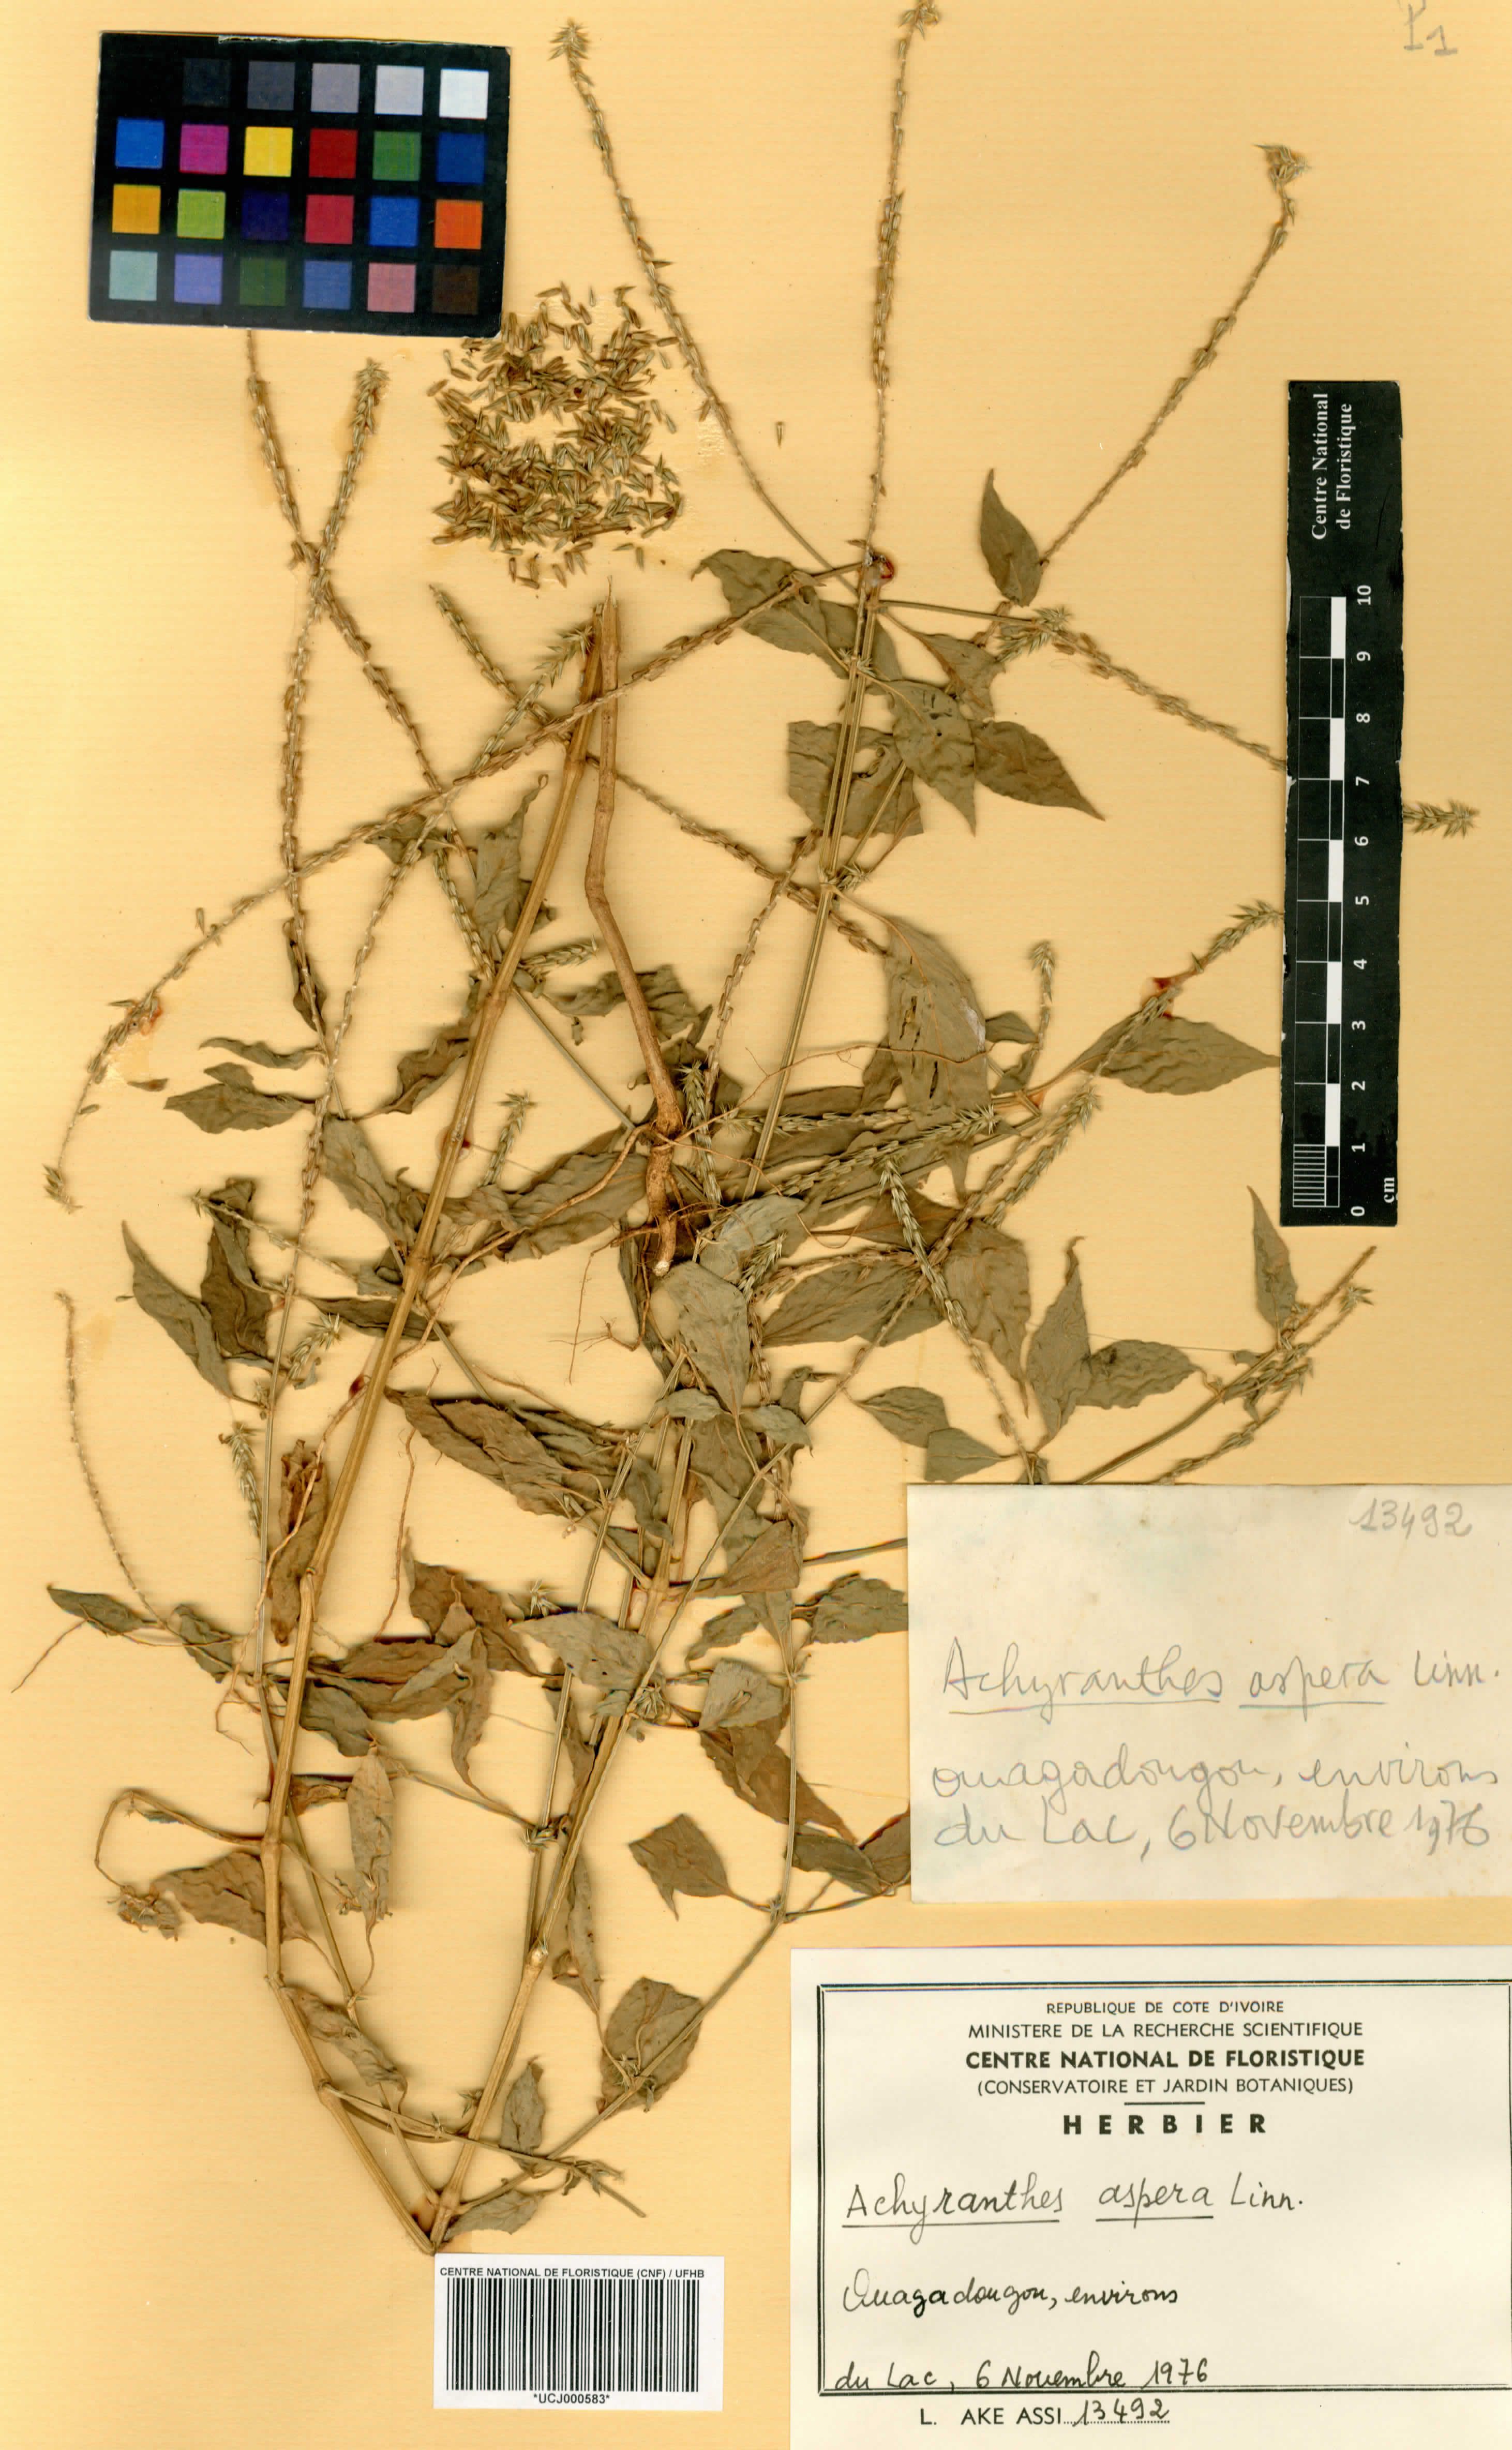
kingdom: Plantae
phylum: Tracheophyta
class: Magnoliopsida
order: Caryophyllales
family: Amaranthaceae
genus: Achyranthes
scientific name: Achyranthes aspera
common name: Devil's horsewhip
